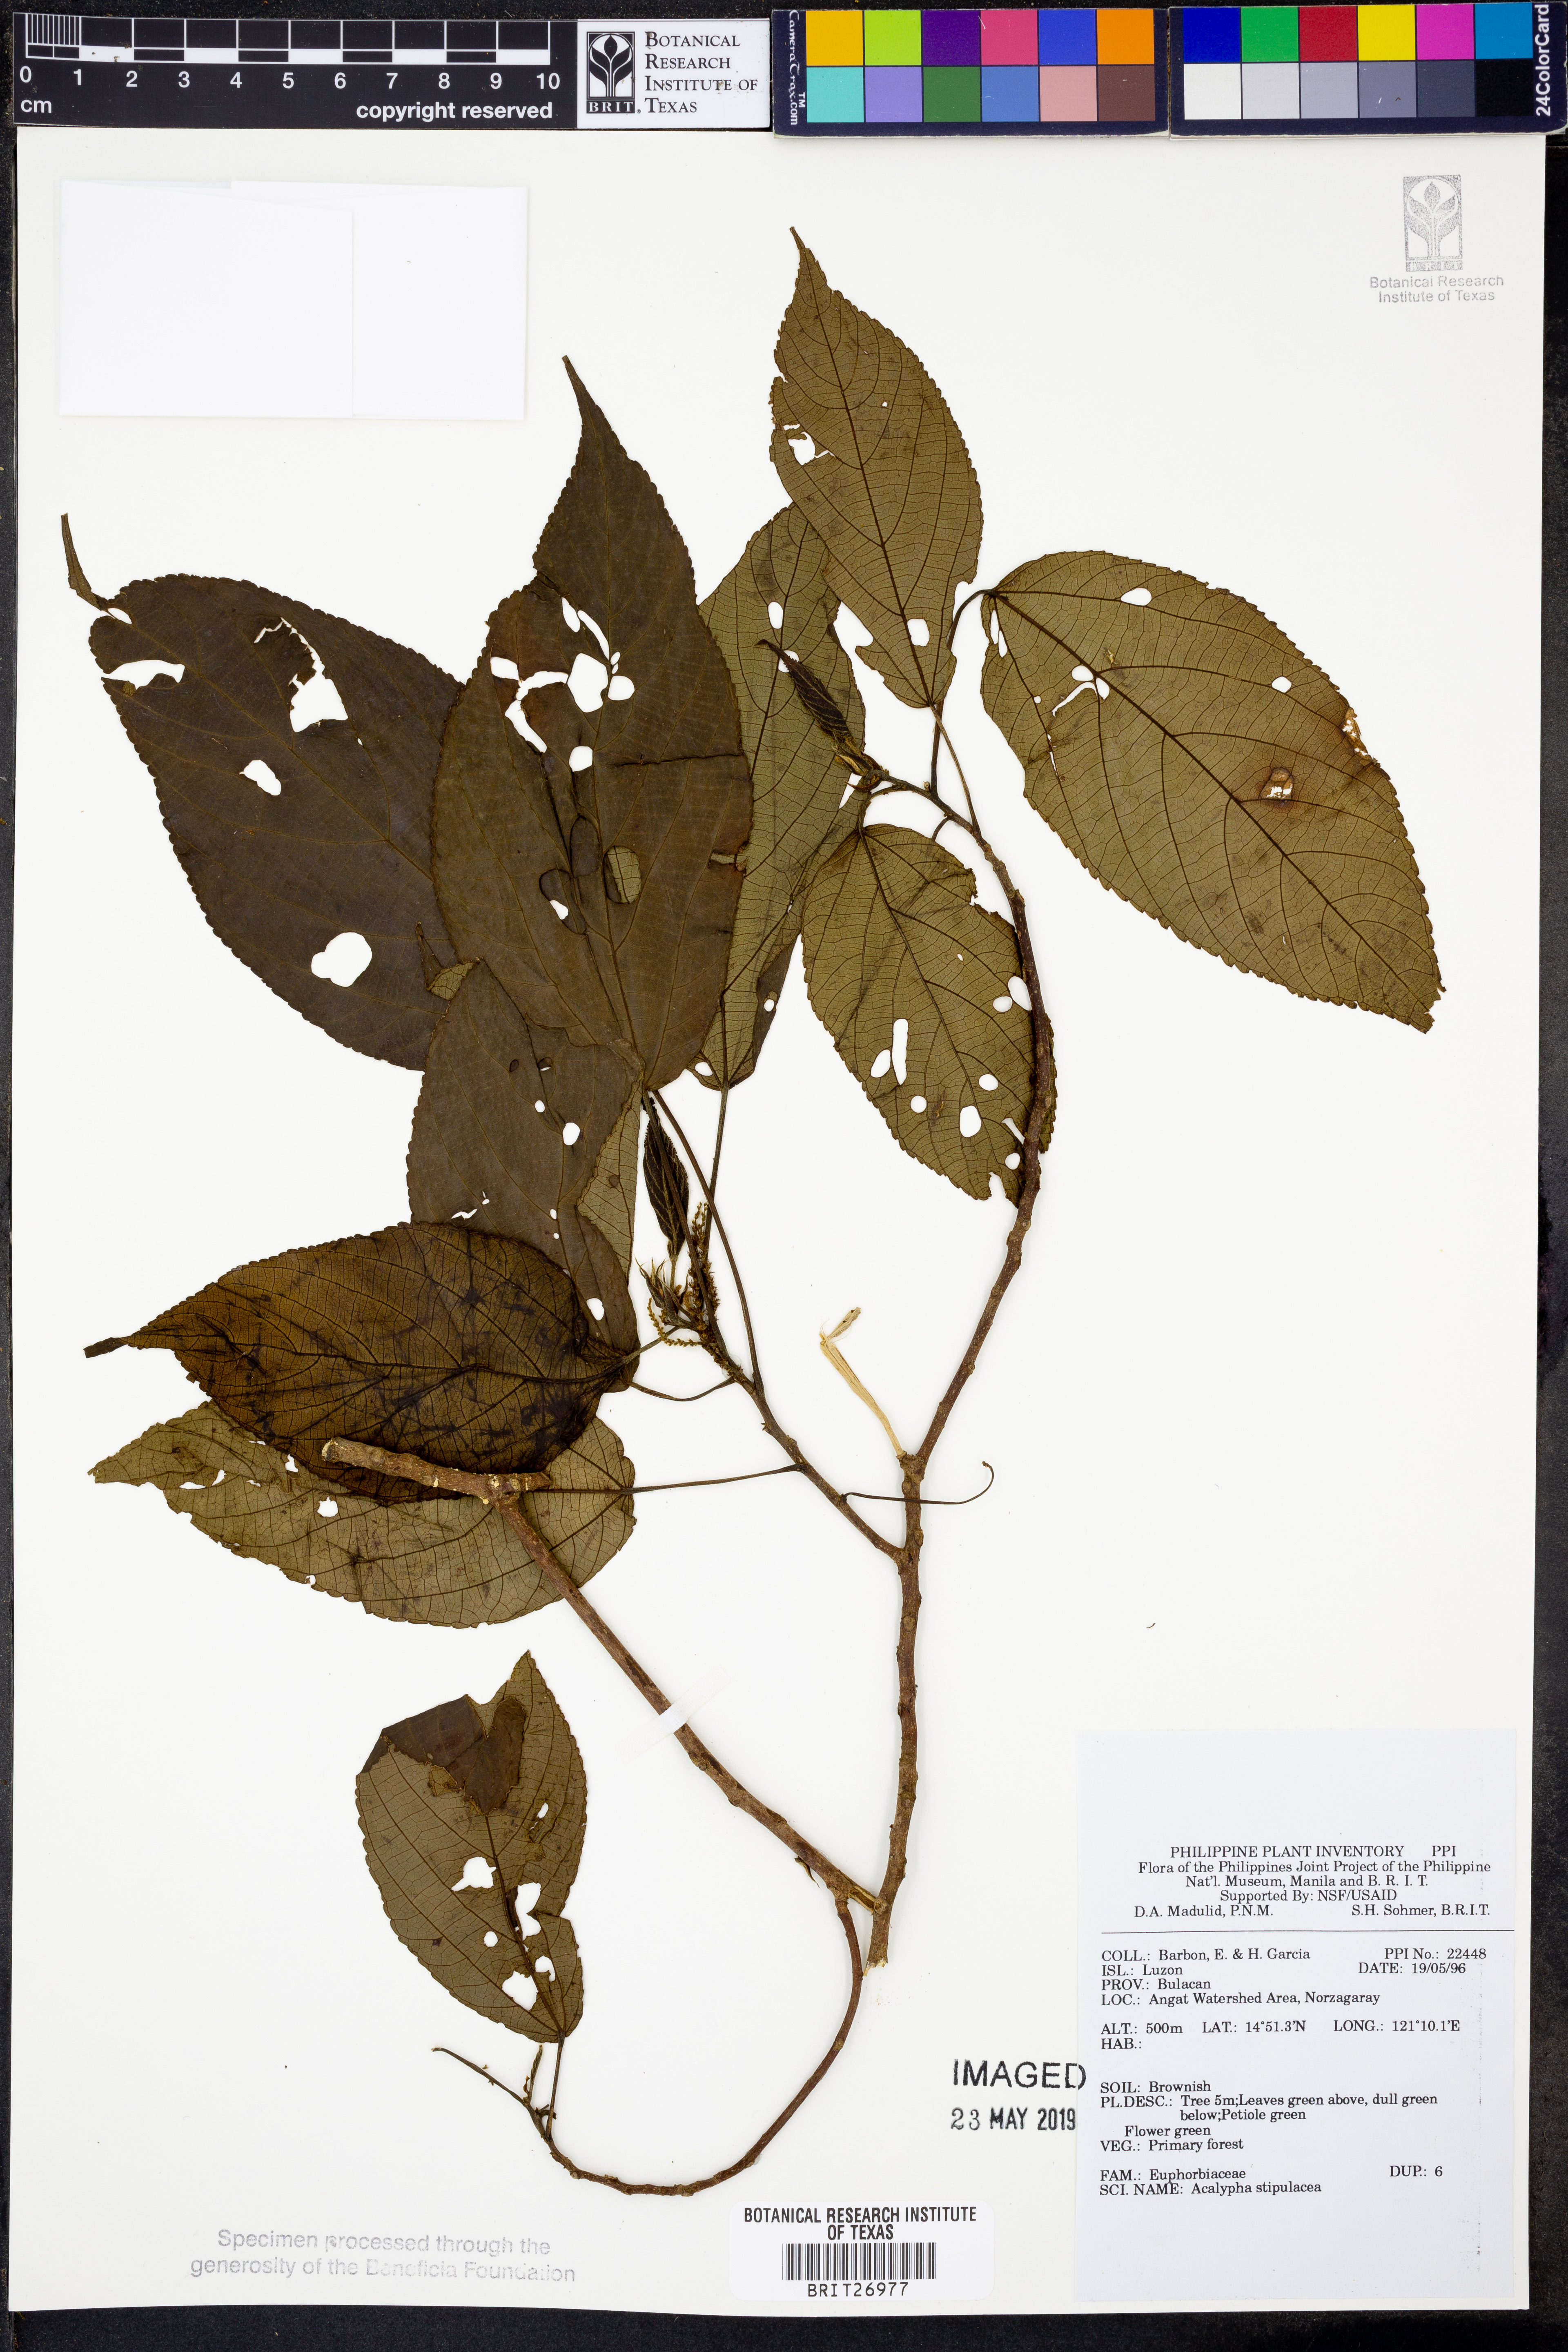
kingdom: Plantae
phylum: Tracheophyta
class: Magnoliopsida
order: Malpighiales
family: Euphorbiaceae
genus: Acalypha
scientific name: Acalypha amentacea
